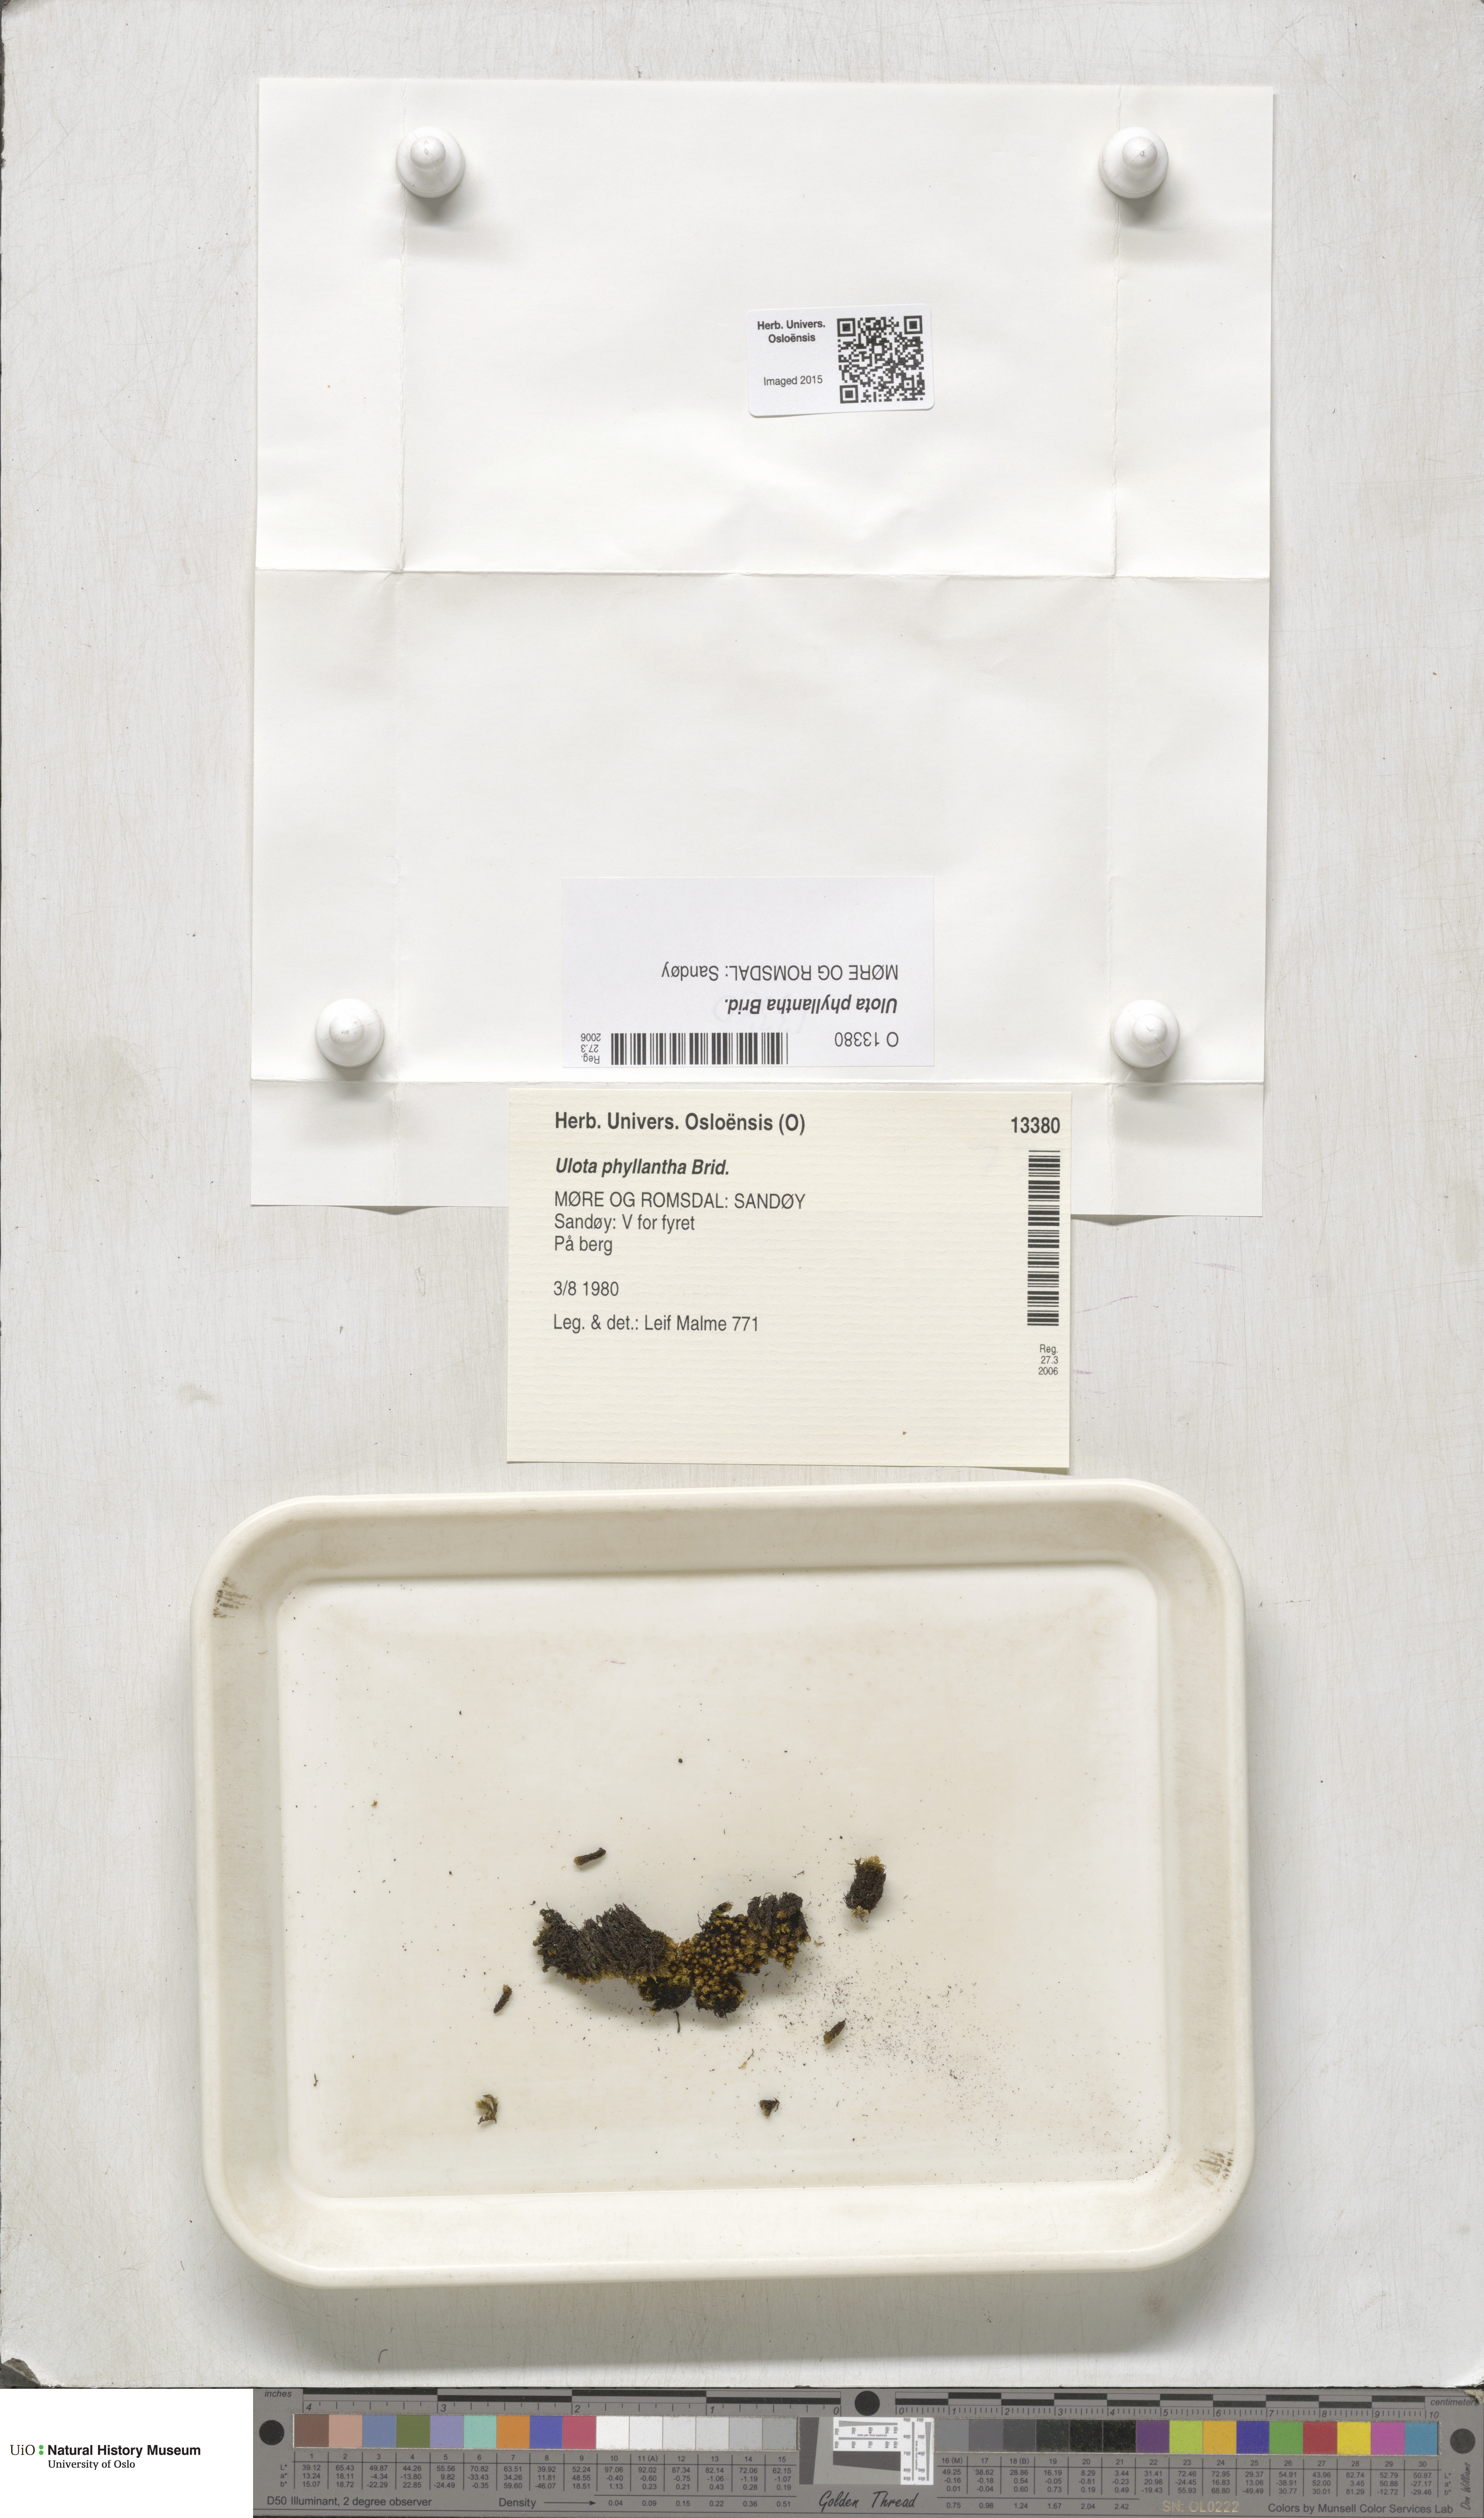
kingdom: Plantae
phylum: Bryophyta
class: Bryopsida
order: Orthotrichales
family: Orthotrichaceae
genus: Plenogemma
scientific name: Plenogemma phyllantha
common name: Frizzled pincushion
